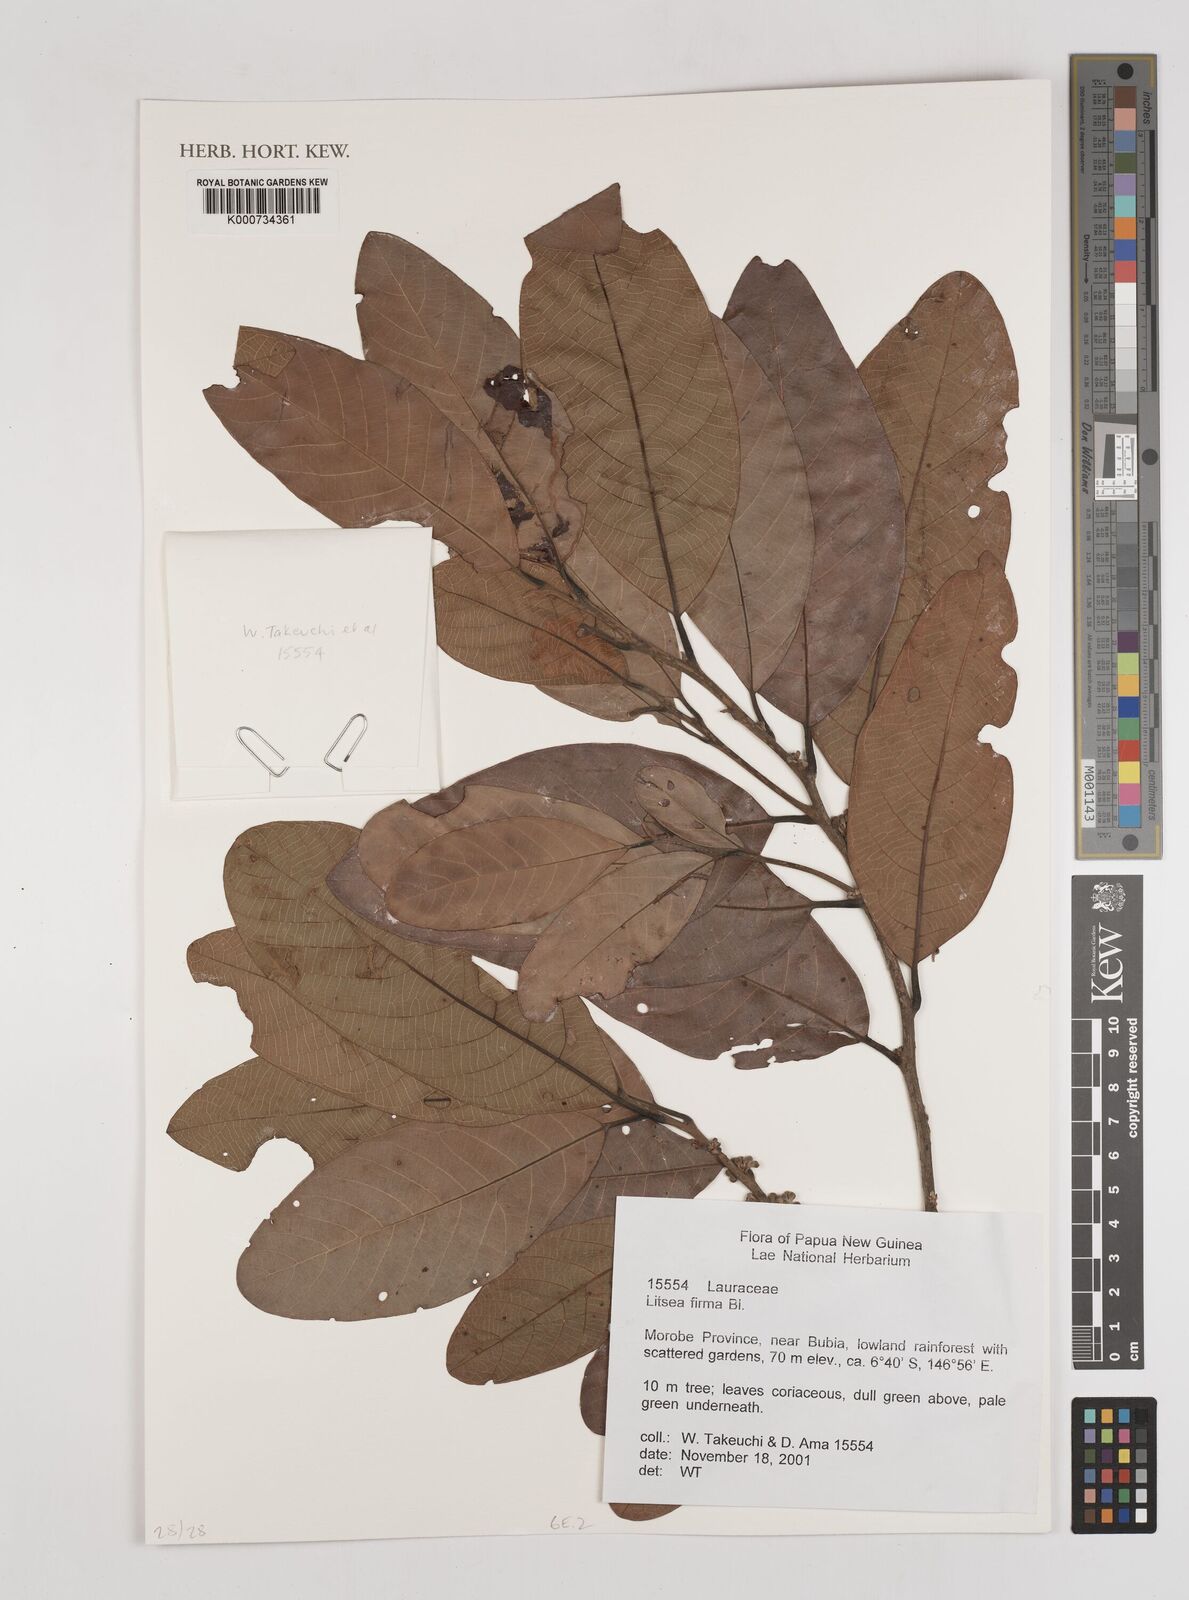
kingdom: Plantae
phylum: Tracheophyta
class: Magnoliopsida
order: Laurales
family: Lauraceae
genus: Cryptocarya
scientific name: Cryptocarya
